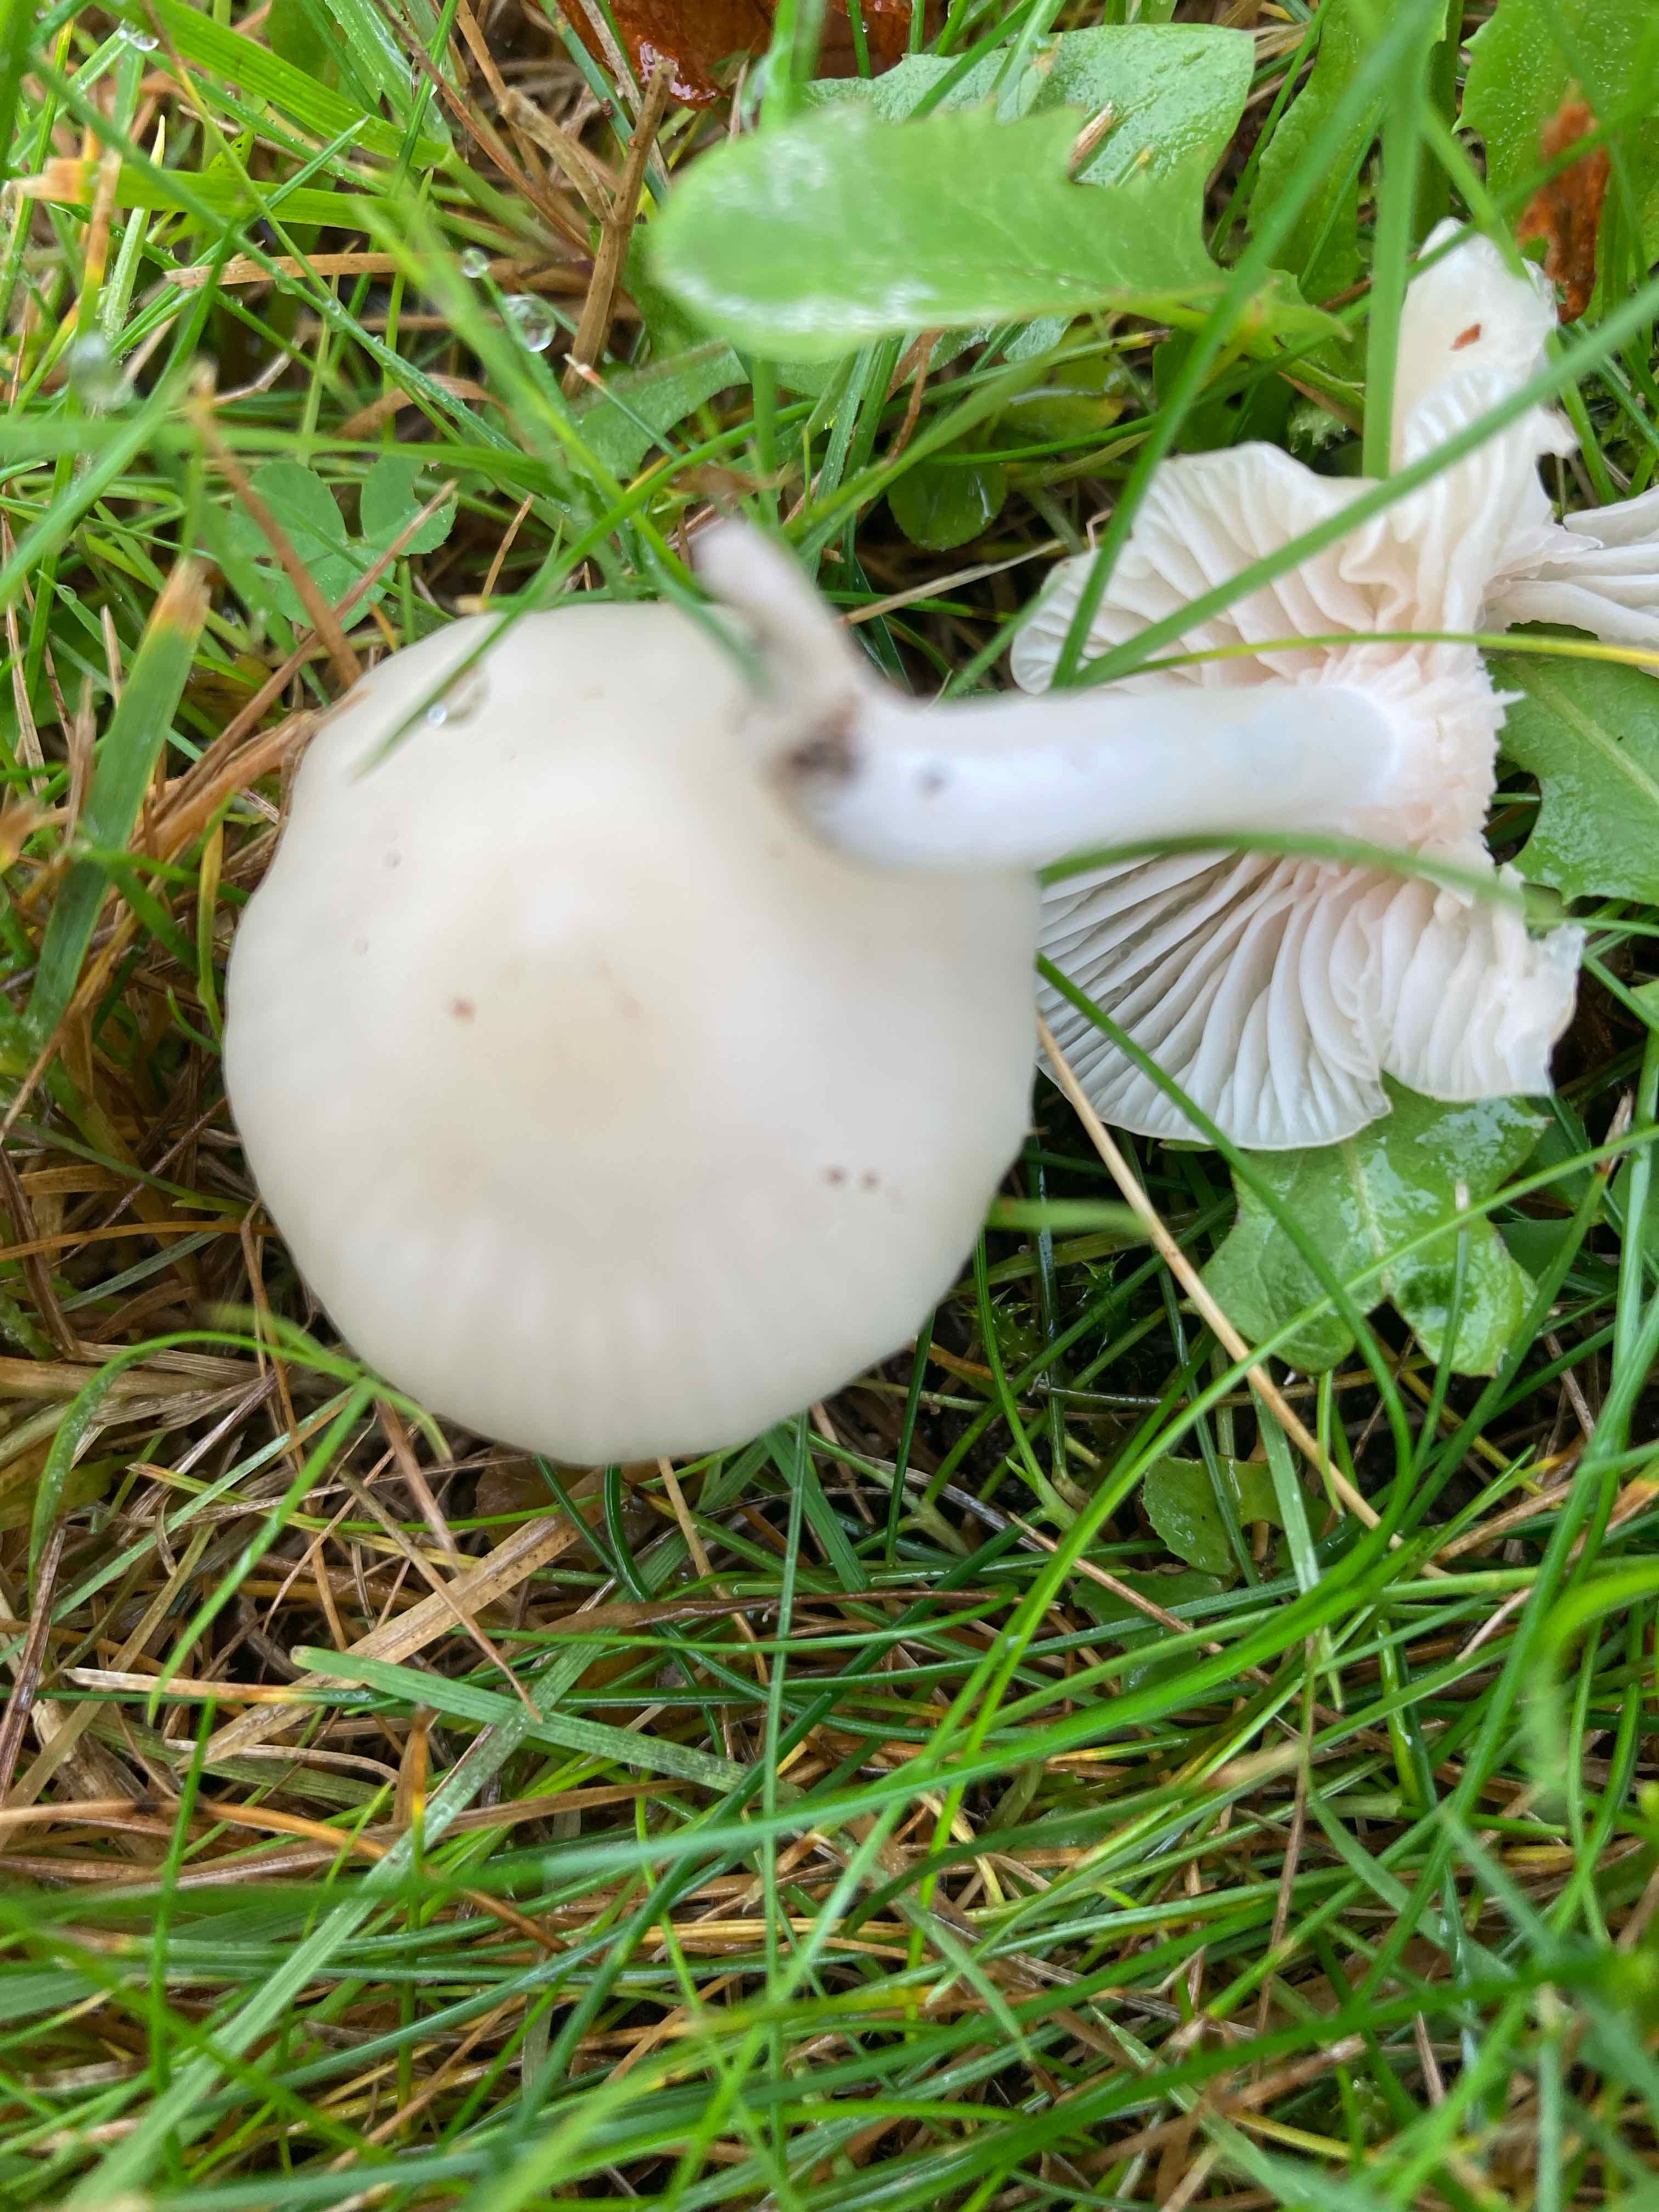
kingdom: Fungi
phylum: Basidiomycota
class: Agaricomycetes
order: Agaricales
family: Hygrophoraceae
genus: Cuphophyllus
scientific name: Cuphophyllus virgineus
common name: snehvid vokshat
